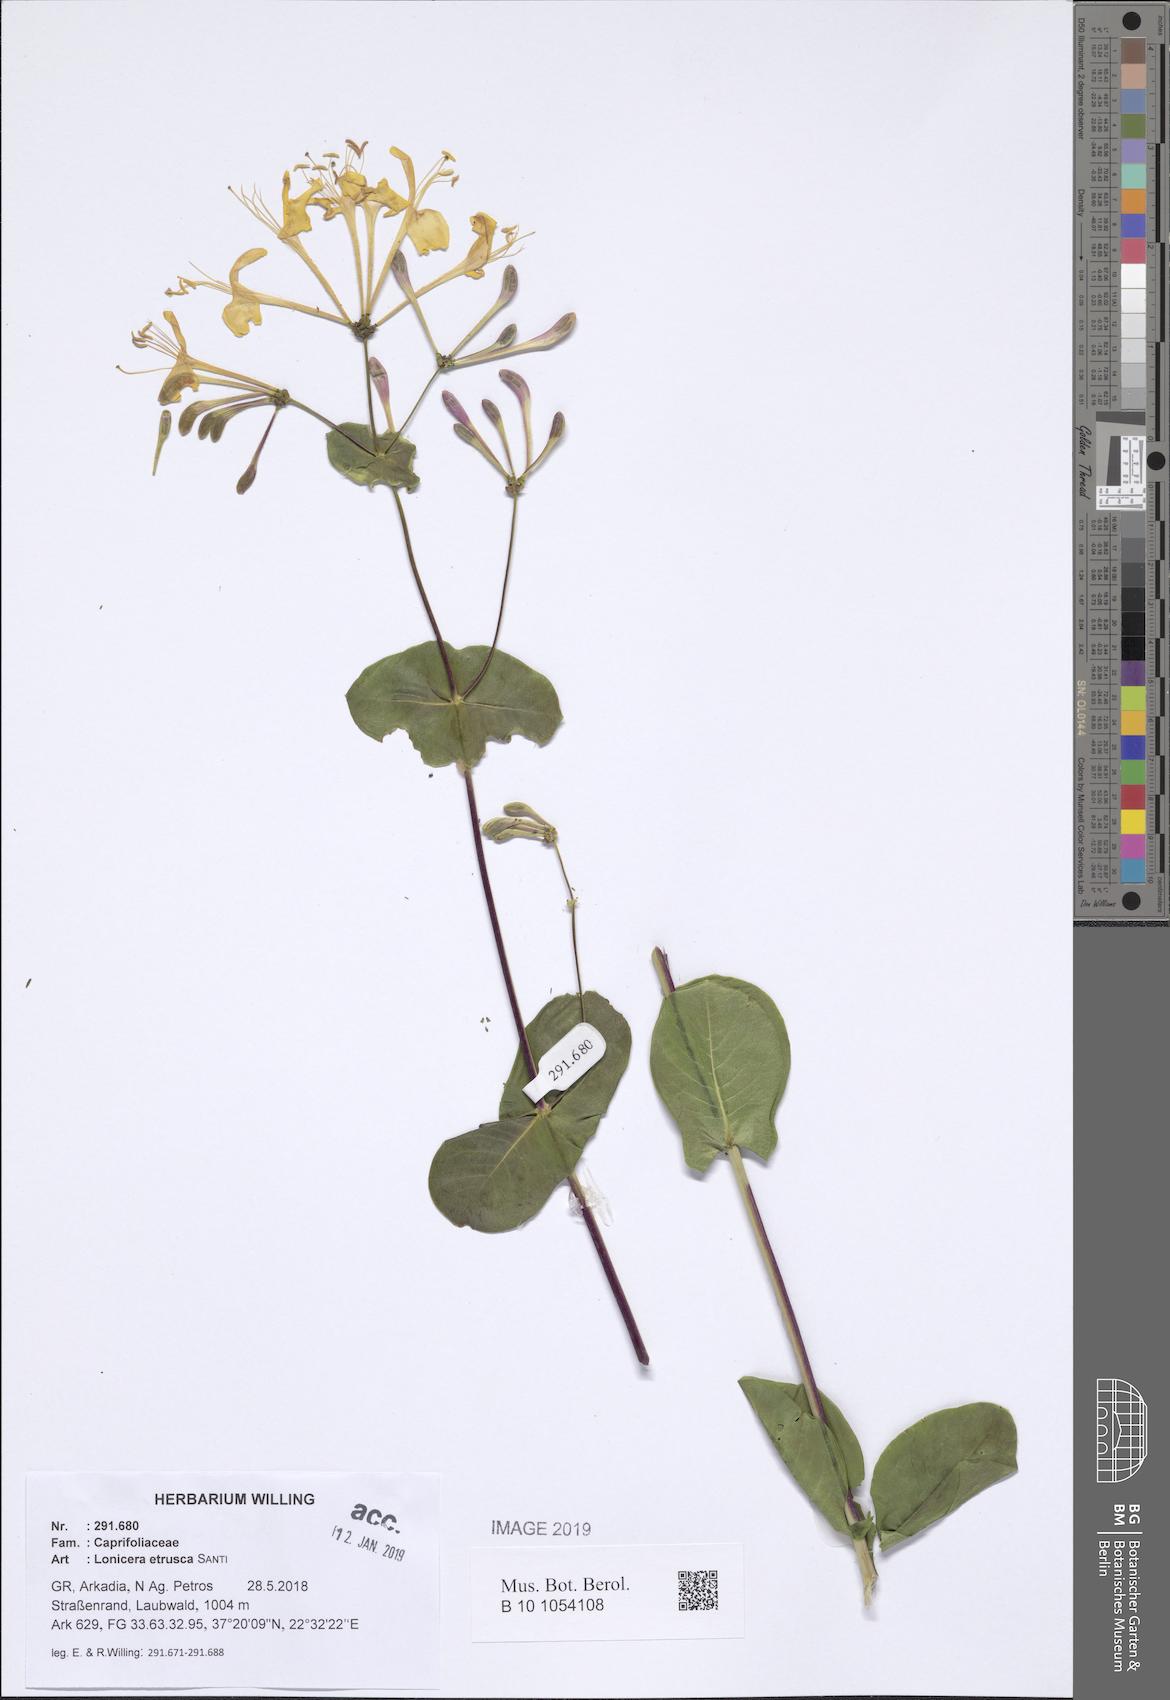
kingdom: Plantae
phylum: Tracheophyta
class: Magnoliopsida
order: Dipsacales
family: Caprifoliaceae
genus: Lonicera
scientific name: Lonicera etrusca
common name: Etruscan honeysuckle
